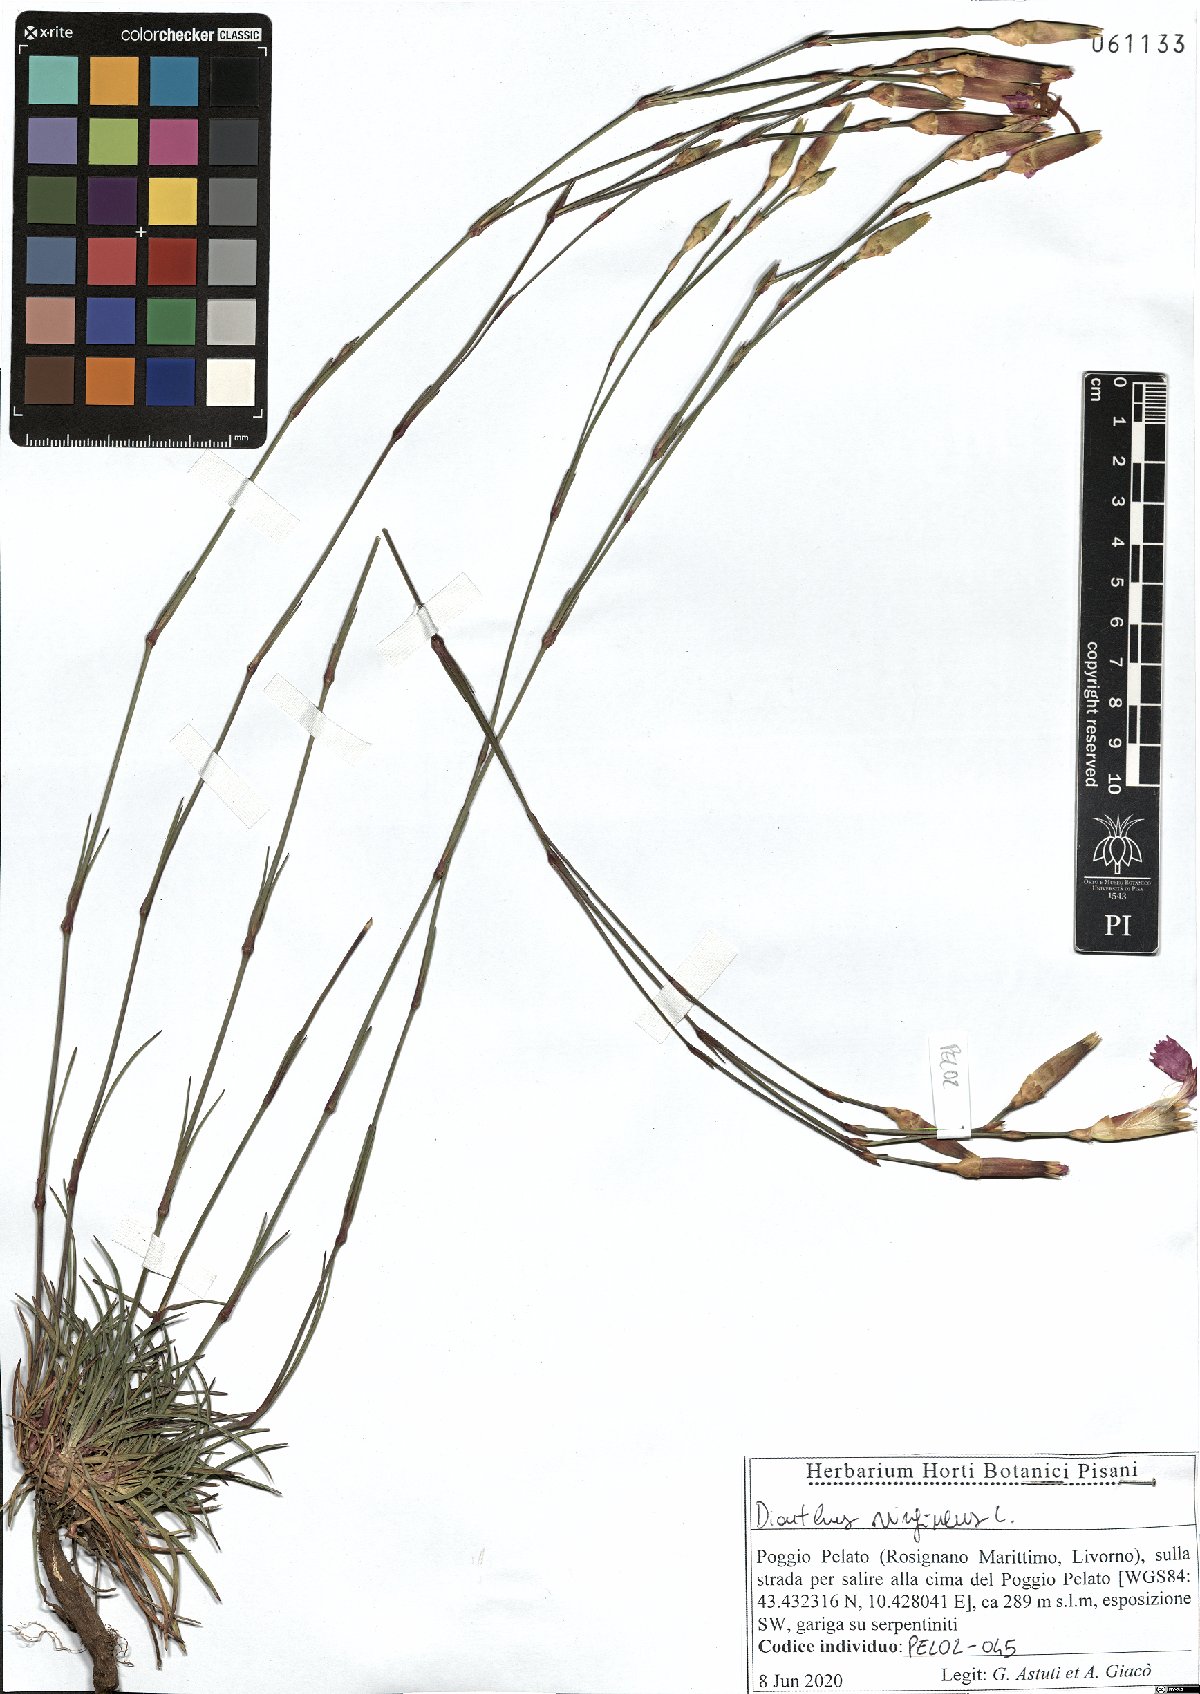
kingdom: Plantae
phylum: Tracheophyta
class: Magnoliopsida
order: Caryophyllales
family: Caryophyllaceae
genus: Dianthus
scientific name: Dianthus virgineus
